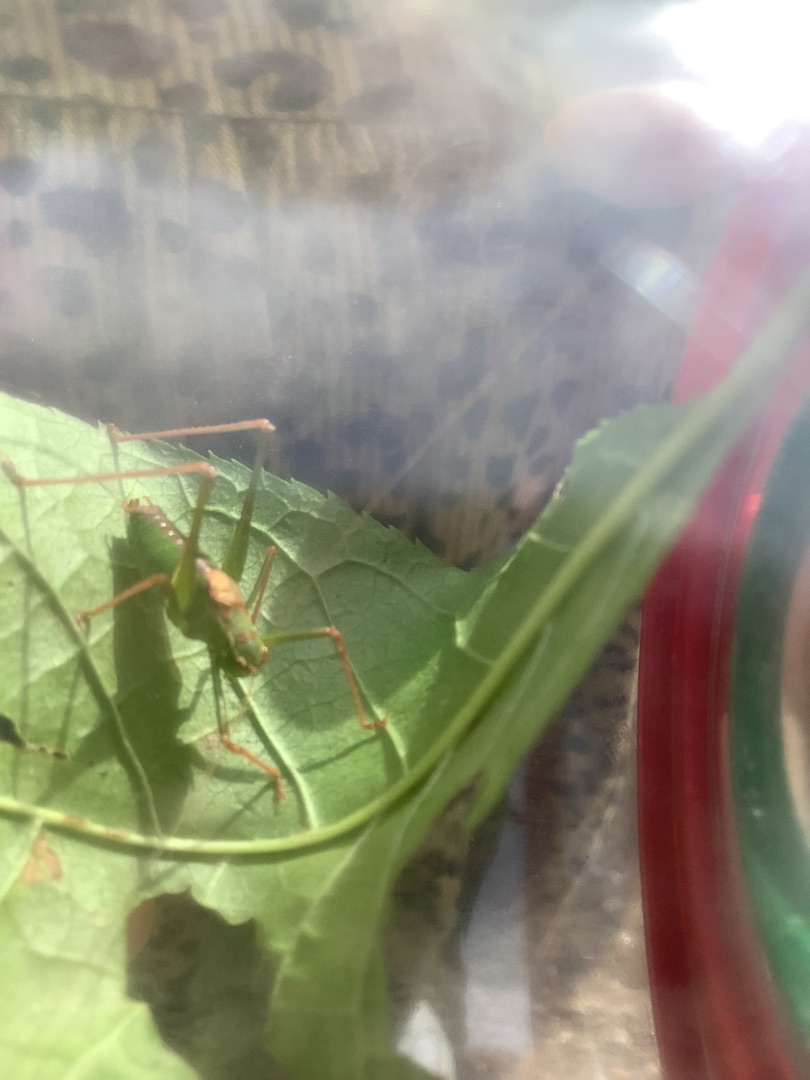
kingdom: Animalia
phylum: Arthropoda
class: Insecta
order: Orthoptera
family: Tettigoniidae
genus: Leptophyes
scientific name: Leptophyes punctatissima
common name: Krumknivgræshoppe
